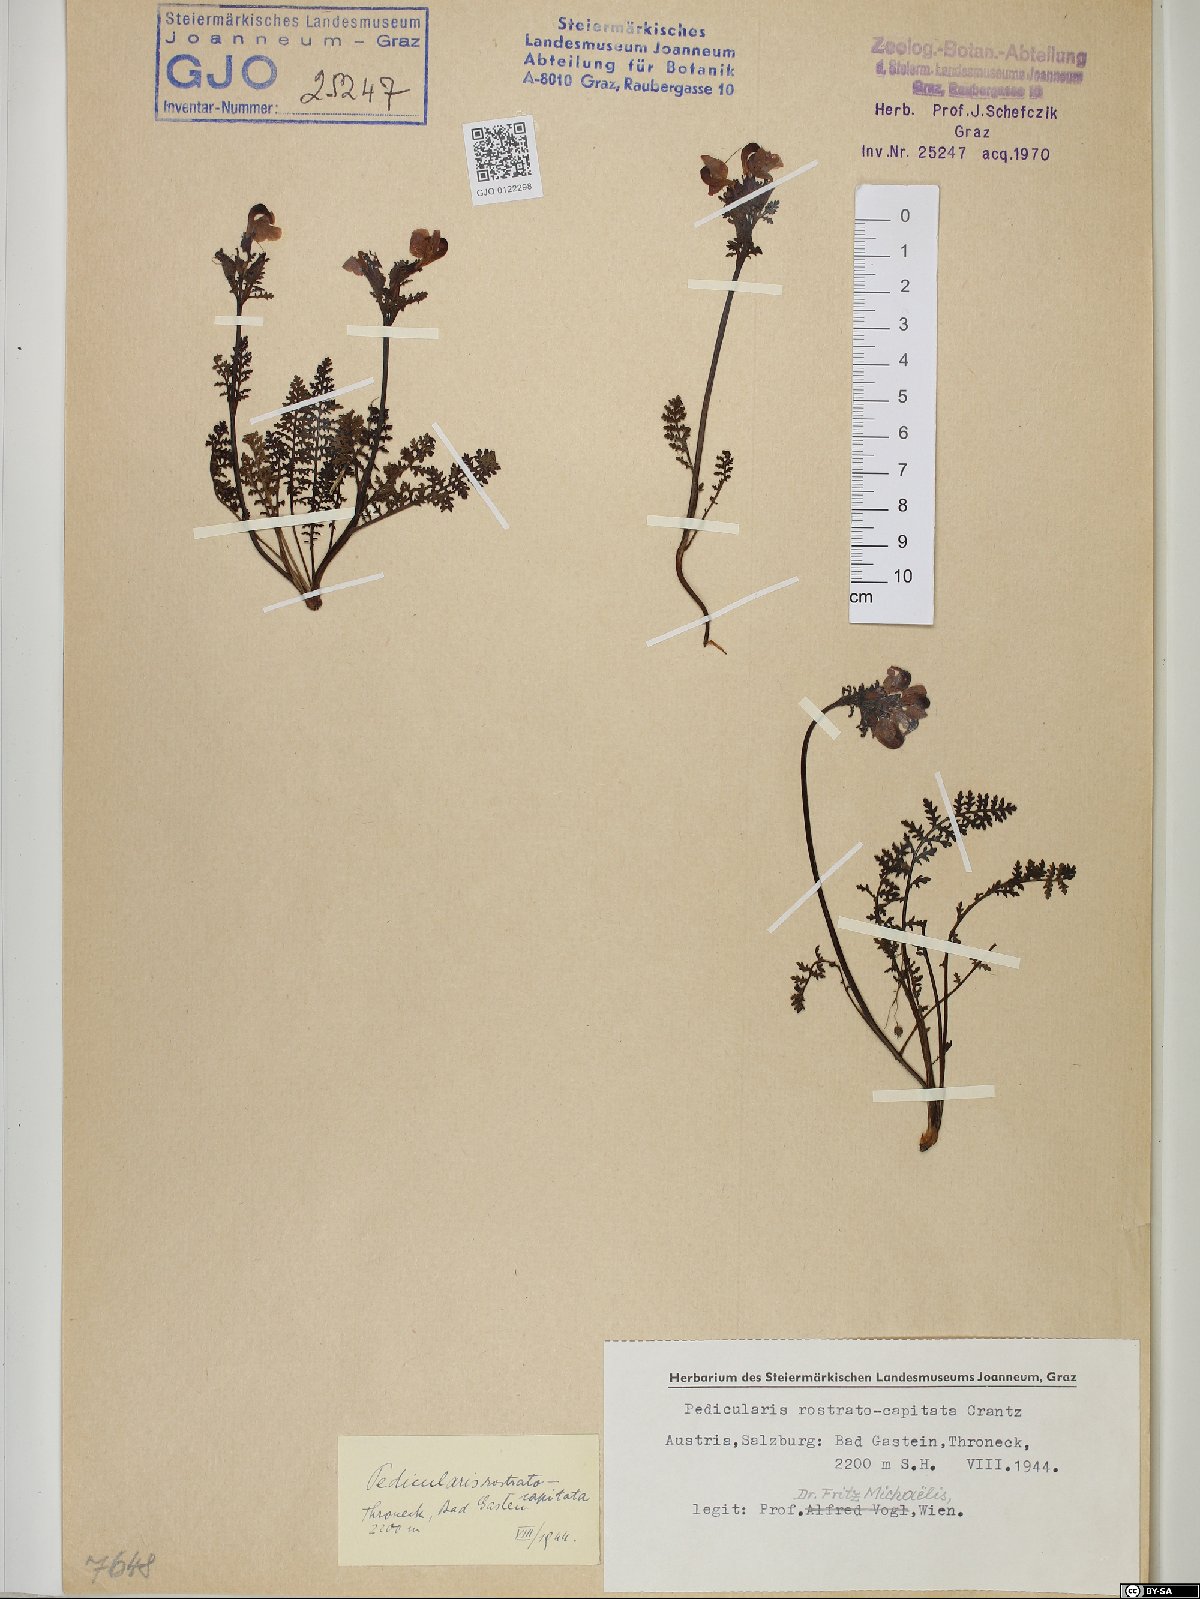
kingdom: Plantae
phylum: Tracheophyta
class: Magnoliopsida
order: Lamiales
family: Orobanchaceae
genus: Pedicularis
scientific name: Pedicularis rostratocapitata
